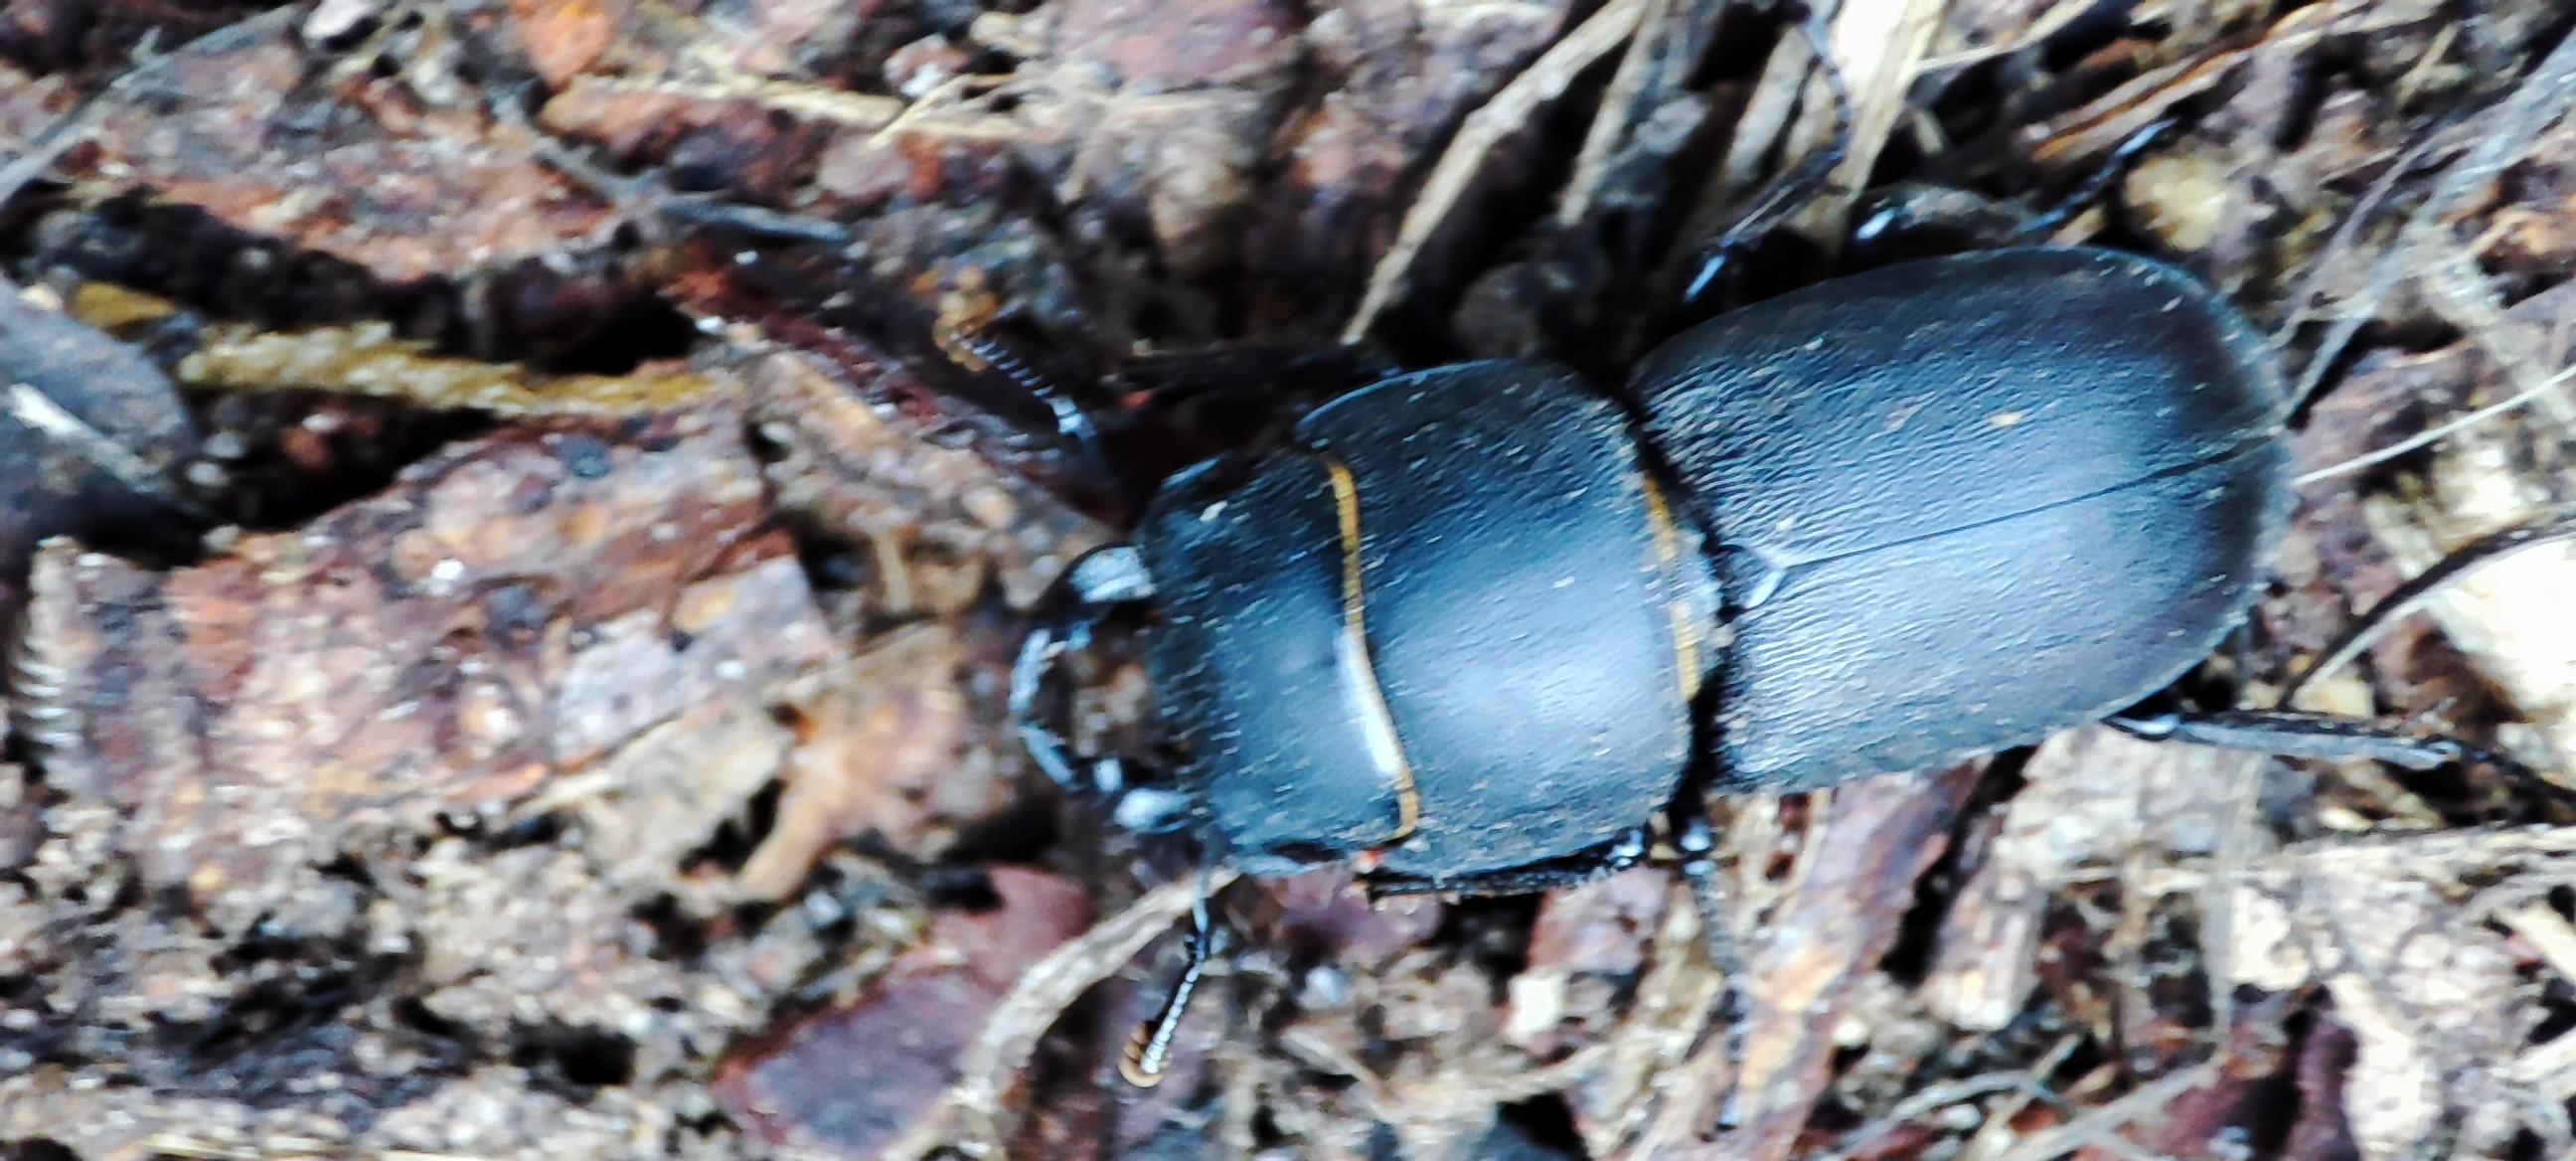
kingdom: Animalia
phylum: Arthropoda
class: Insecta
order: Coleoptera
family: Lucanidae
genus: Dorcus
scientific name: Dorcus parallelipipedus
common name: Bøghjort
